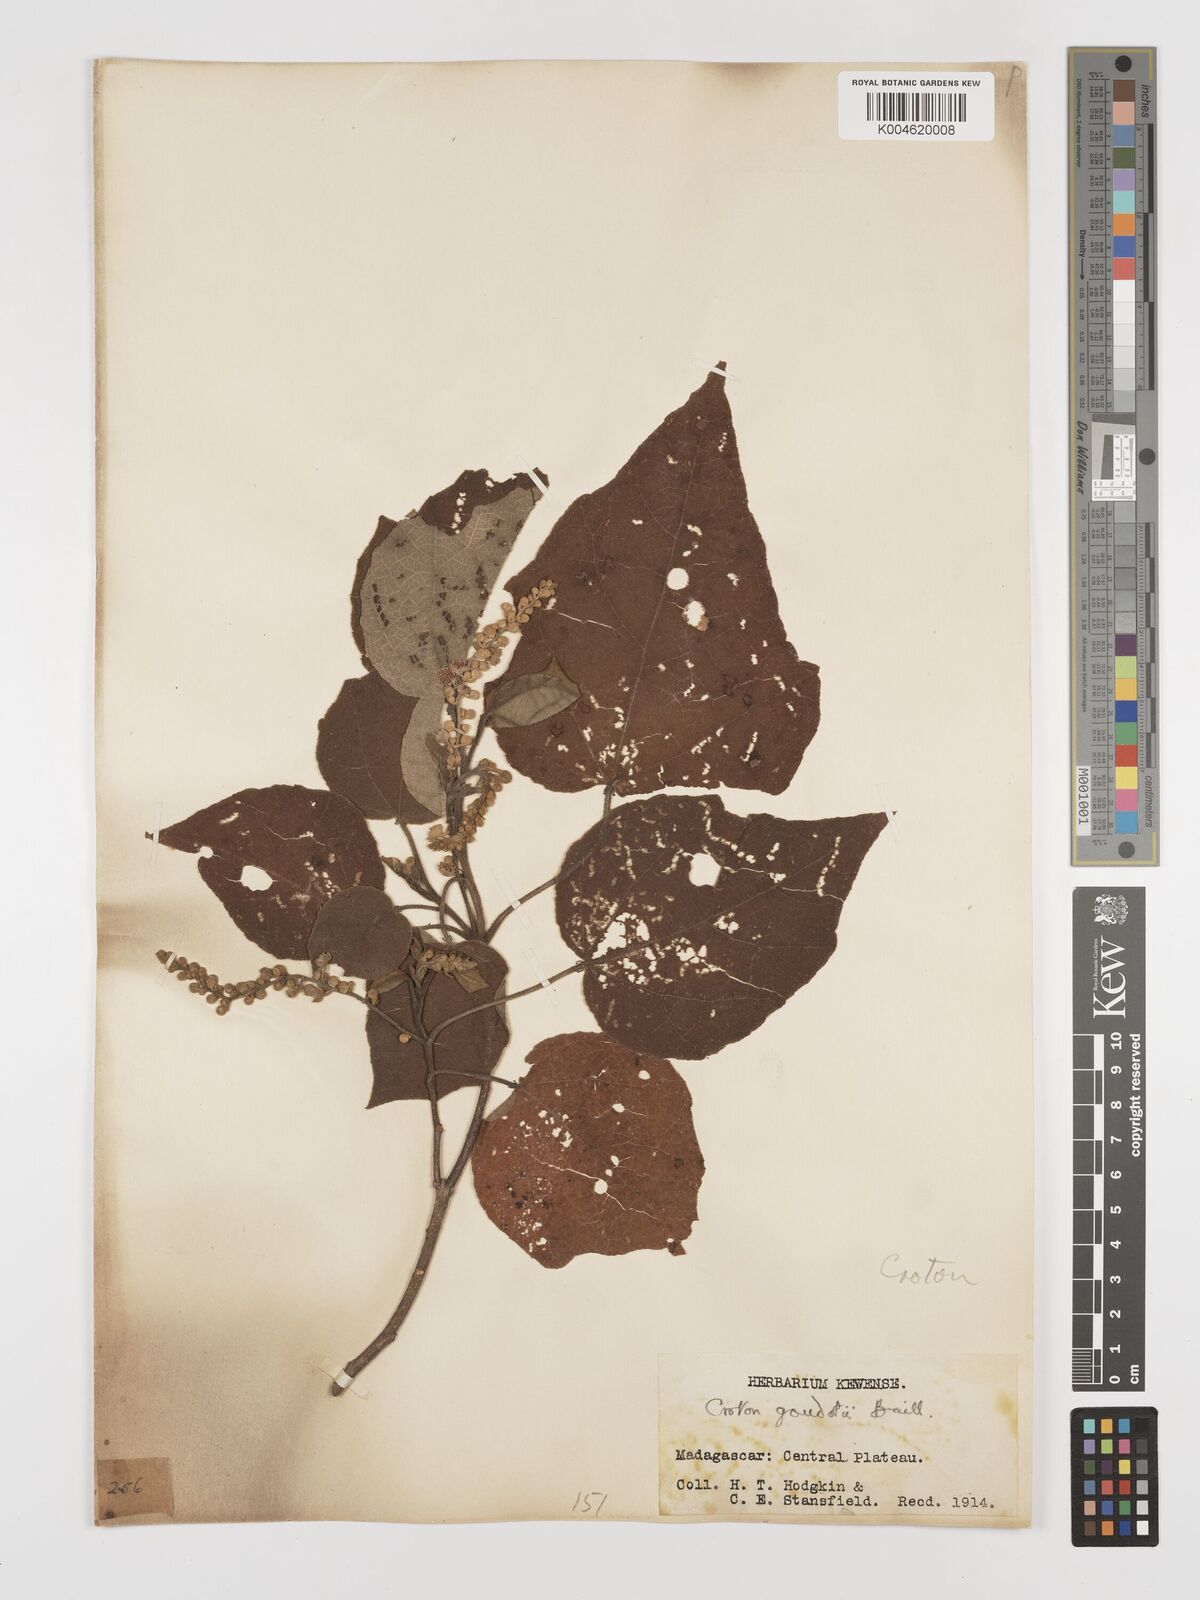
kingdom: Plantae
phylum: Tracheophyta
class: Magnoliopsida
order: Malpighiales
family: Euphorbiaceae
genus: Croton
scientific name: Croton goudotii
